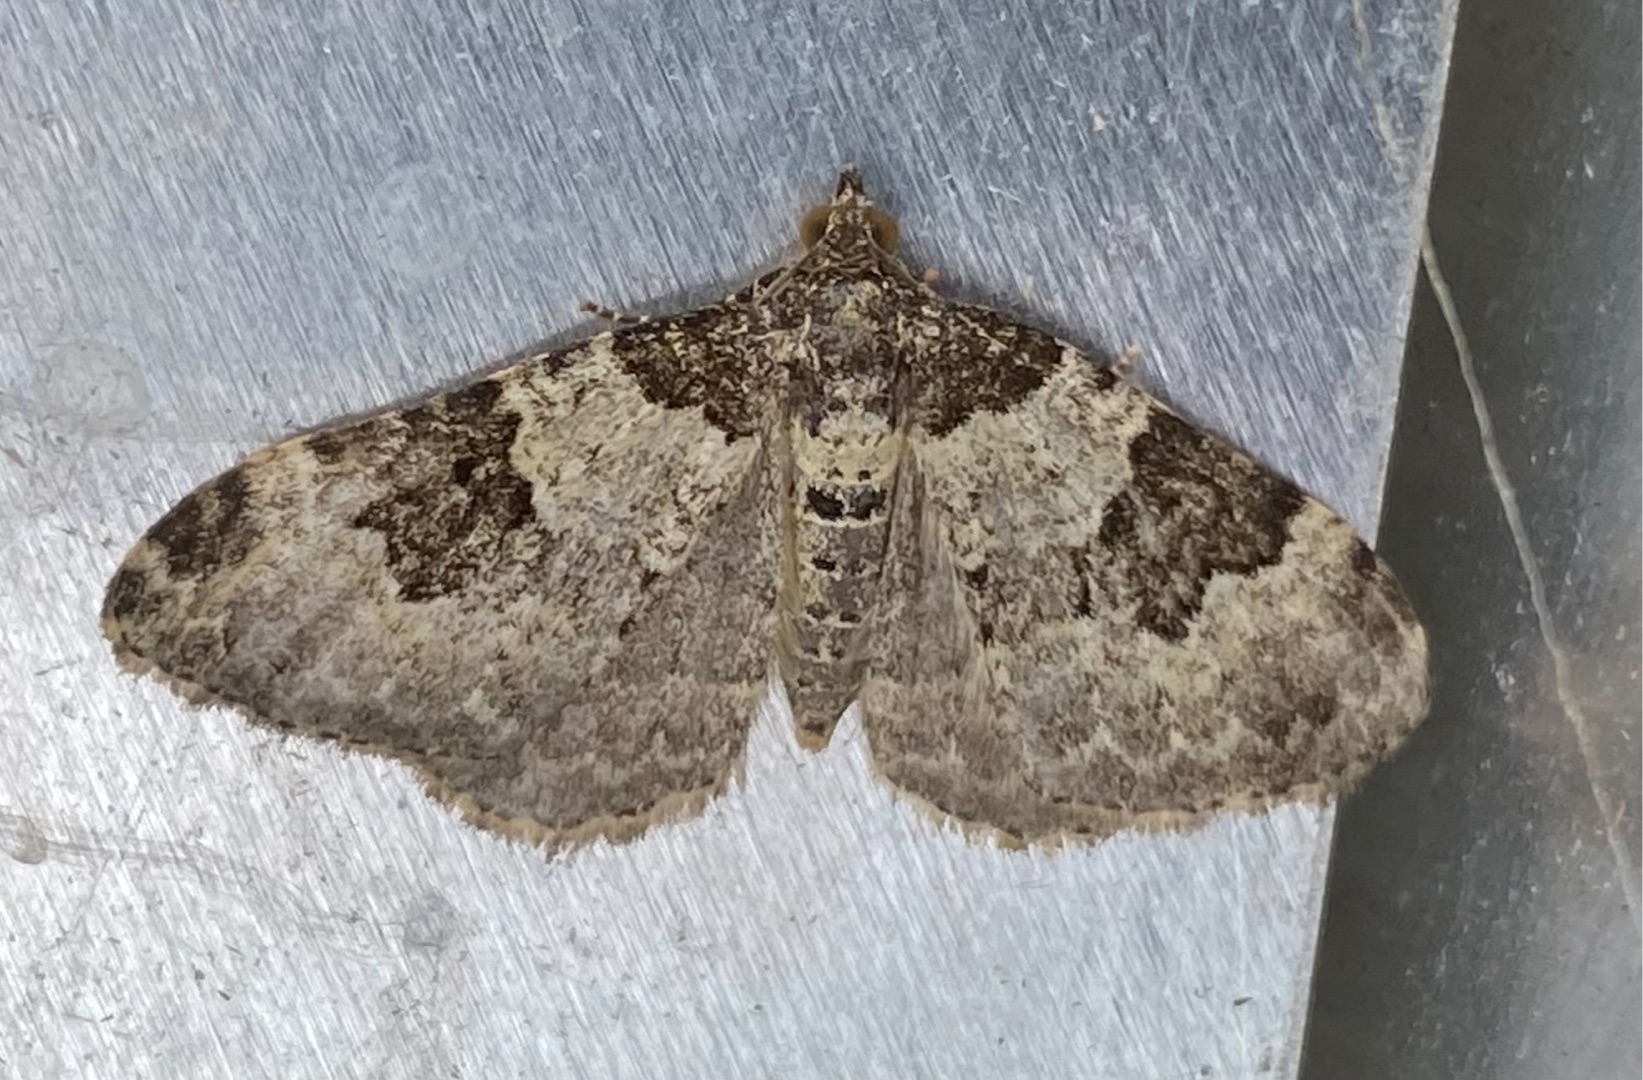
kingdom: Animalia
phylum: Arthropoda
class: Insecta
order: Lepidoptera
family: Geometridae
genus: Xanthorhoe
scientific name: Xanthorhoe fluctuata
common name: Sortbæltet bladmåler
